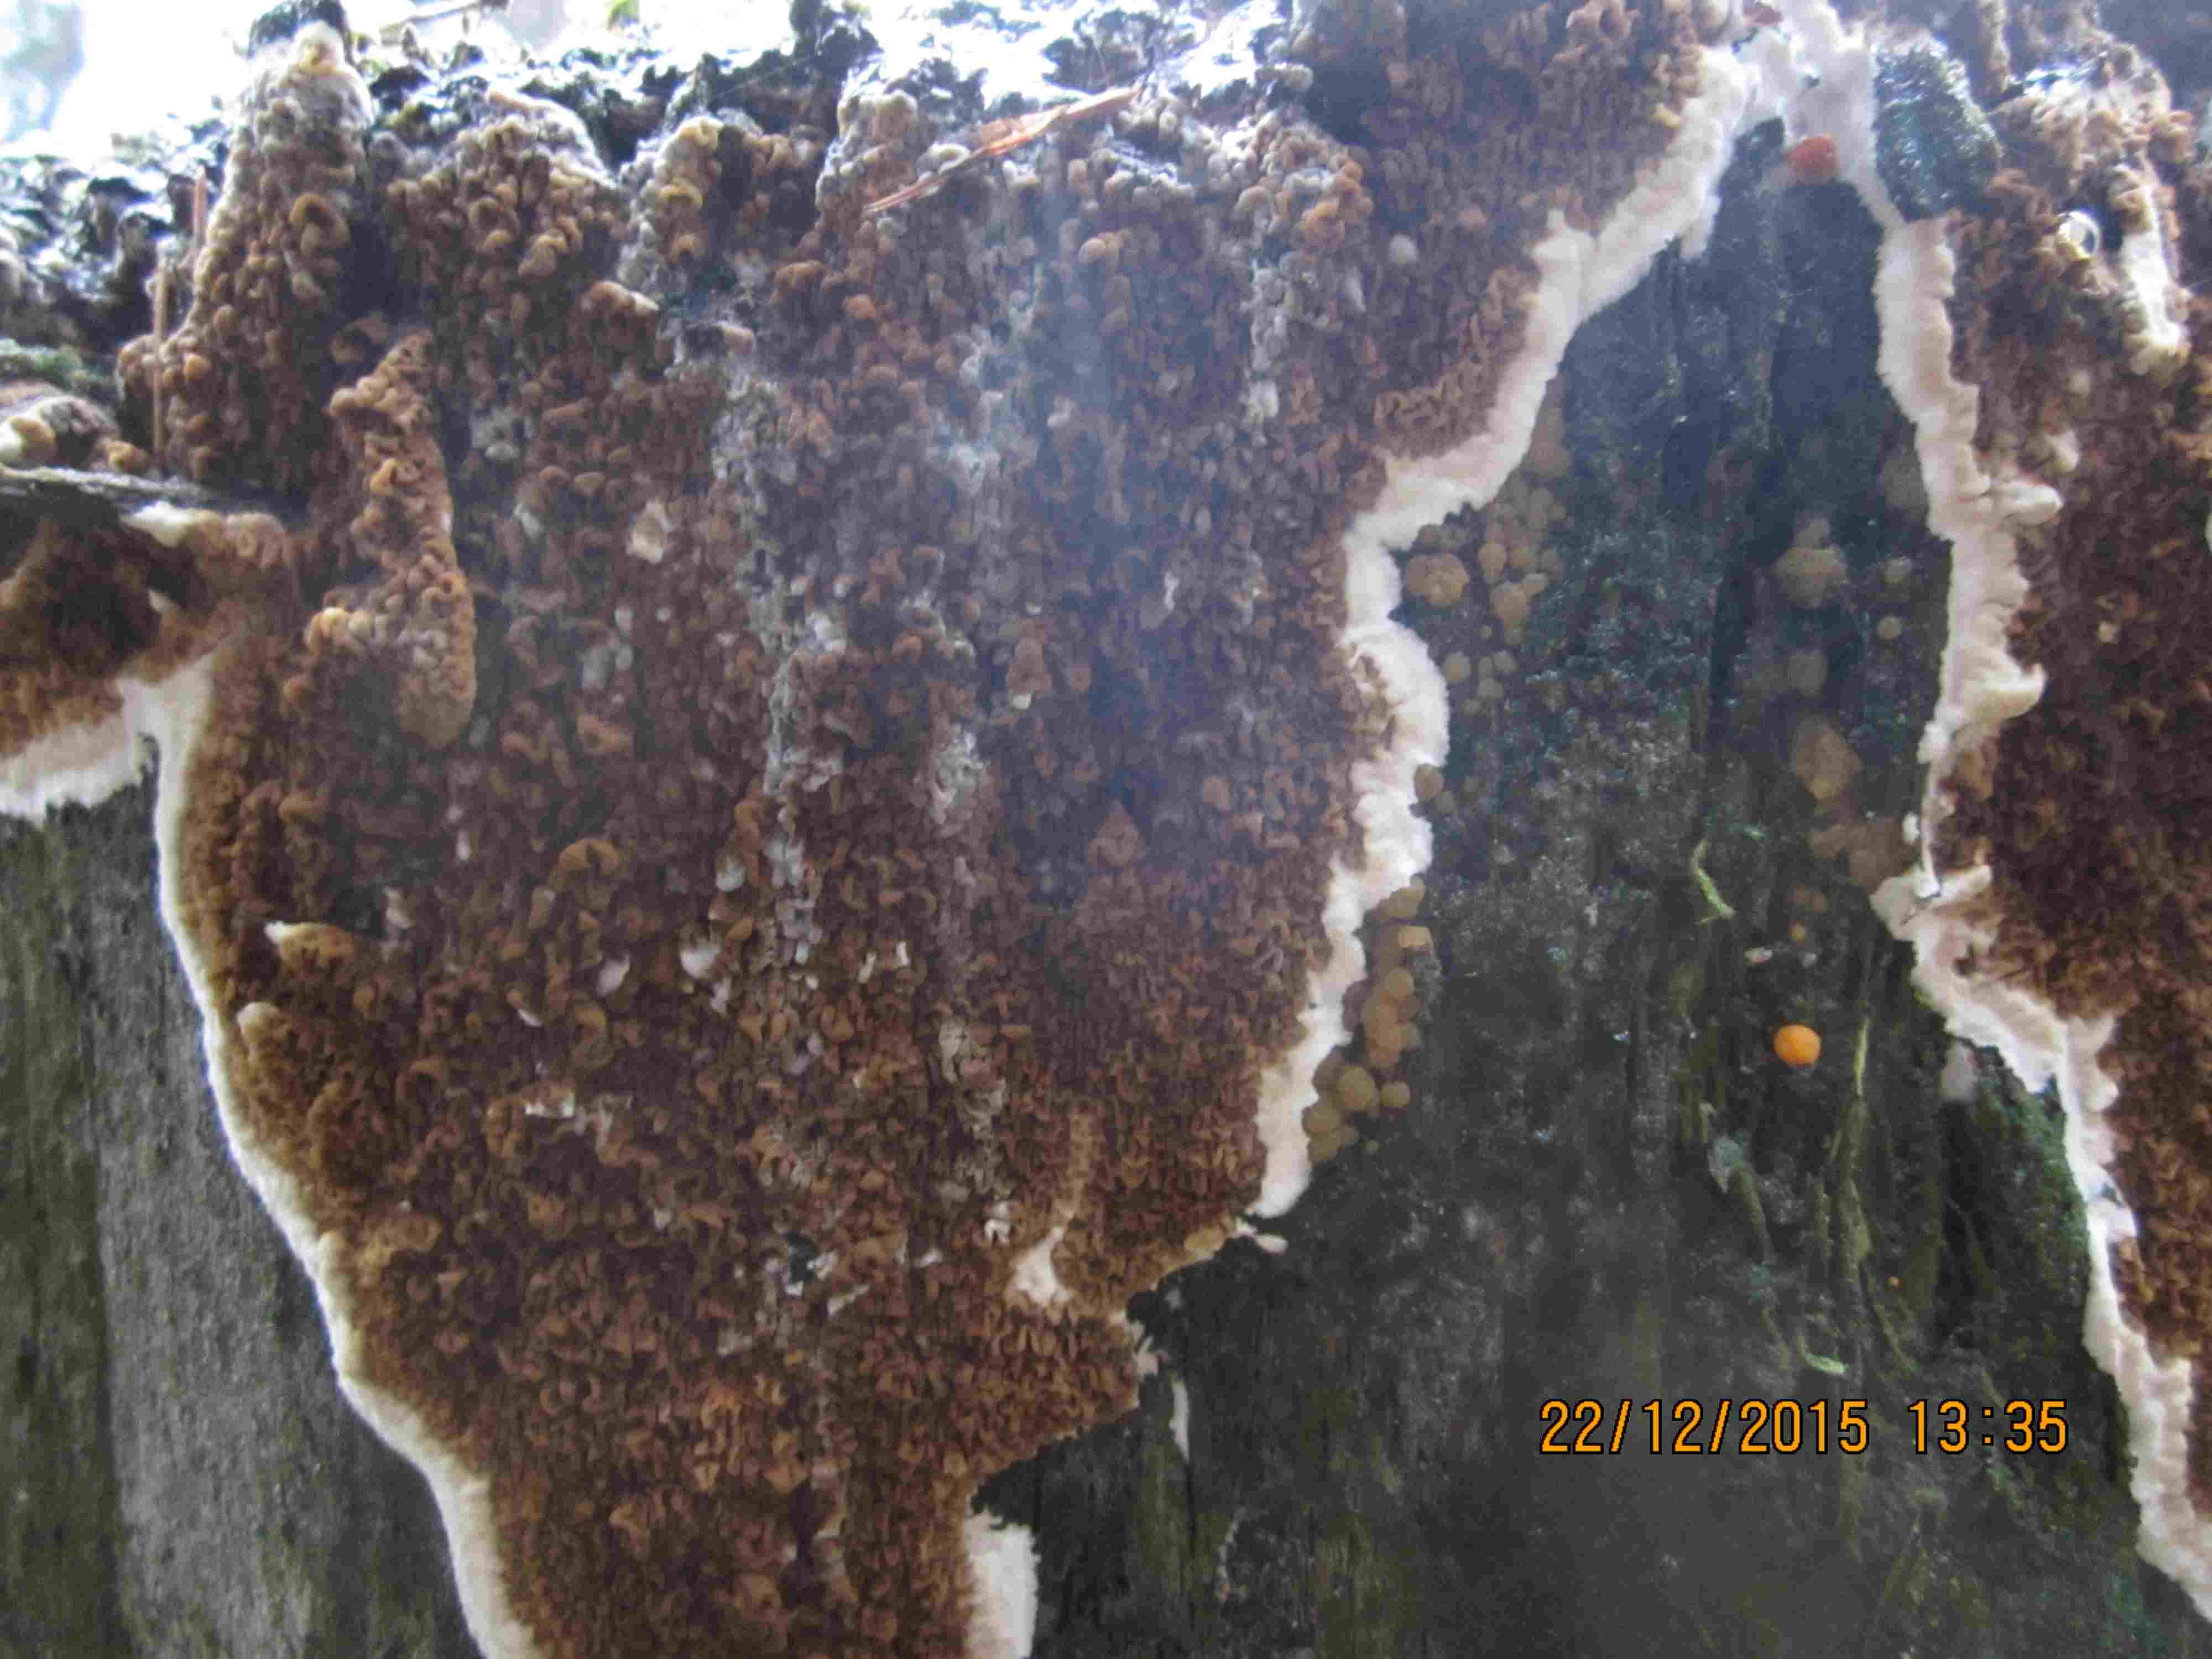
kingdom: Fungi
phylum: Basidiomycota
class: Agaricomycetes
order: Boletales
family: Serpulaceae
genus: Serpula
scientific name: Serpula himantioides
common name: tyndkødet hussvamp
